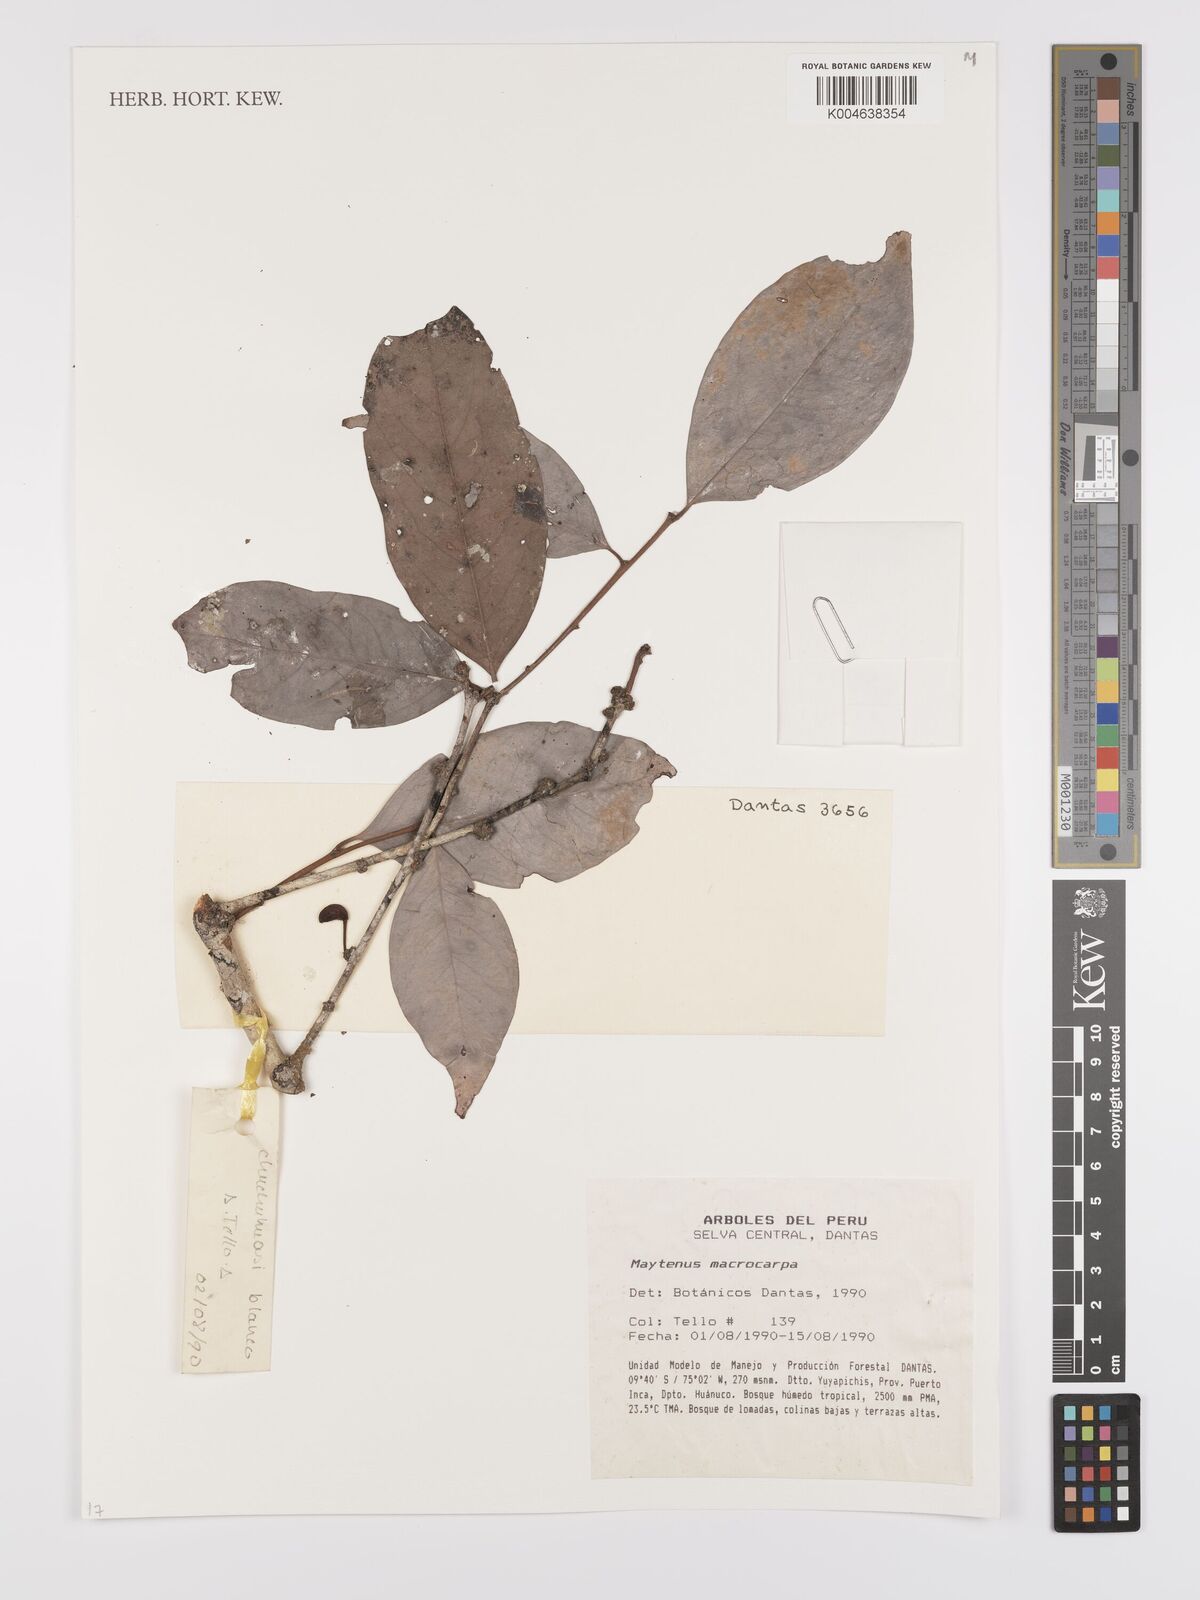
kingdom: Plantae
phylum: Tracheophyta
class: Magnoliopsida
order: Celastrales
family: Celastraceae
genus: Monteverdia
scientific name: Monteverdia macrocarpa
